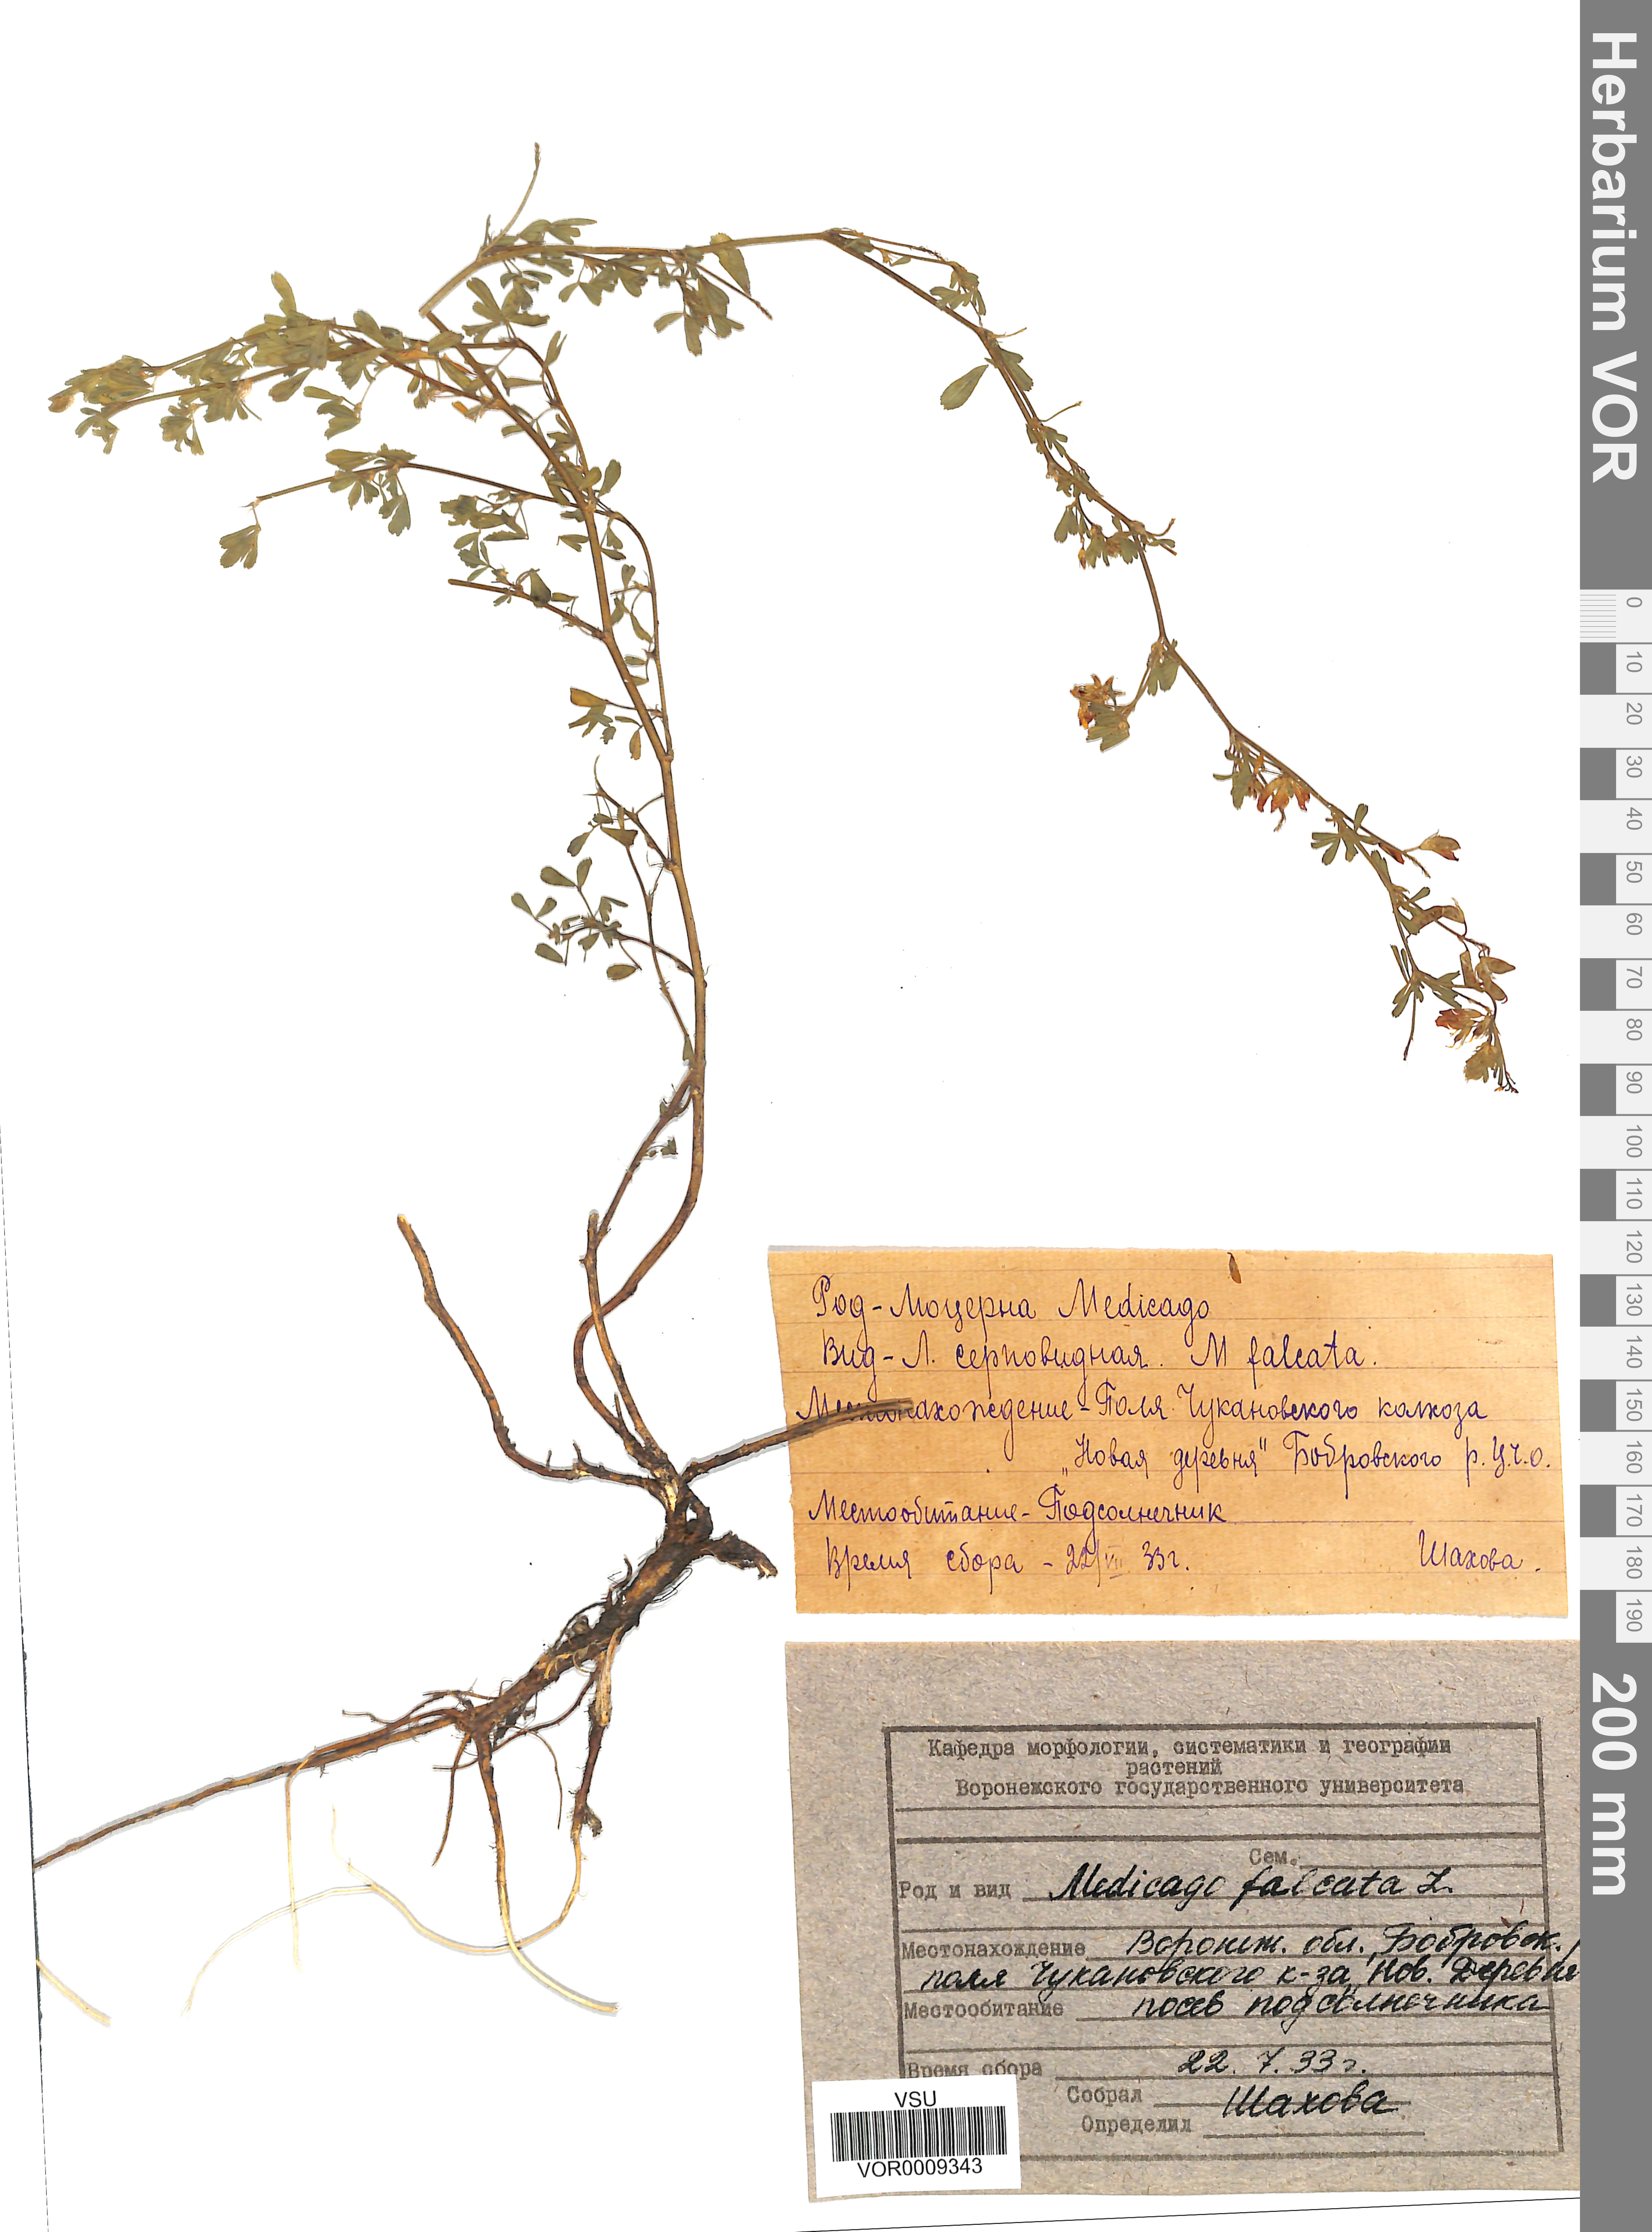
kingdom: Plantae
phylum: Tracheophyta
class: Magnoliopsida
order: Fabales
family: Fabaceae
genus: Medicago
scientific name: Medicago falcata
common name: Sickle medick
